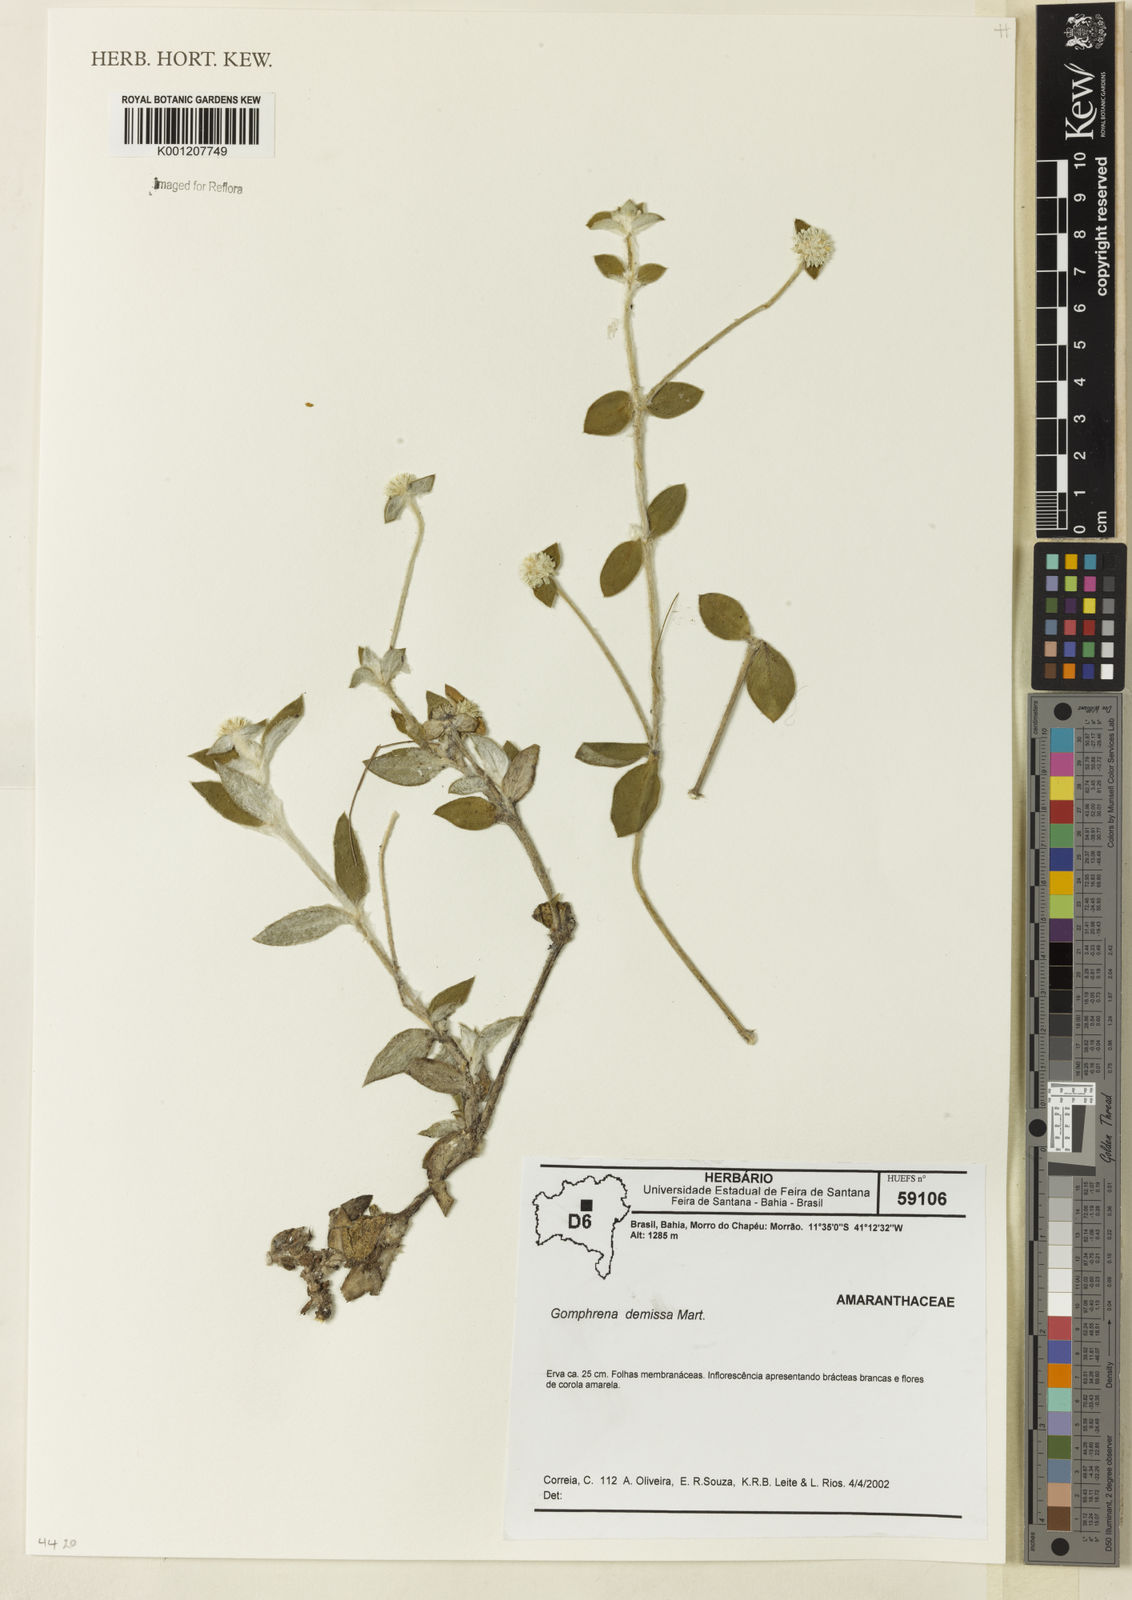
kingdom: Plantae
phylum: Tracheophyta
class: Magnoliopsida
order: Caryophyllales
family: Amaranthaceae
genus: Gomphrena
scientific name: Gomphrena demissa
